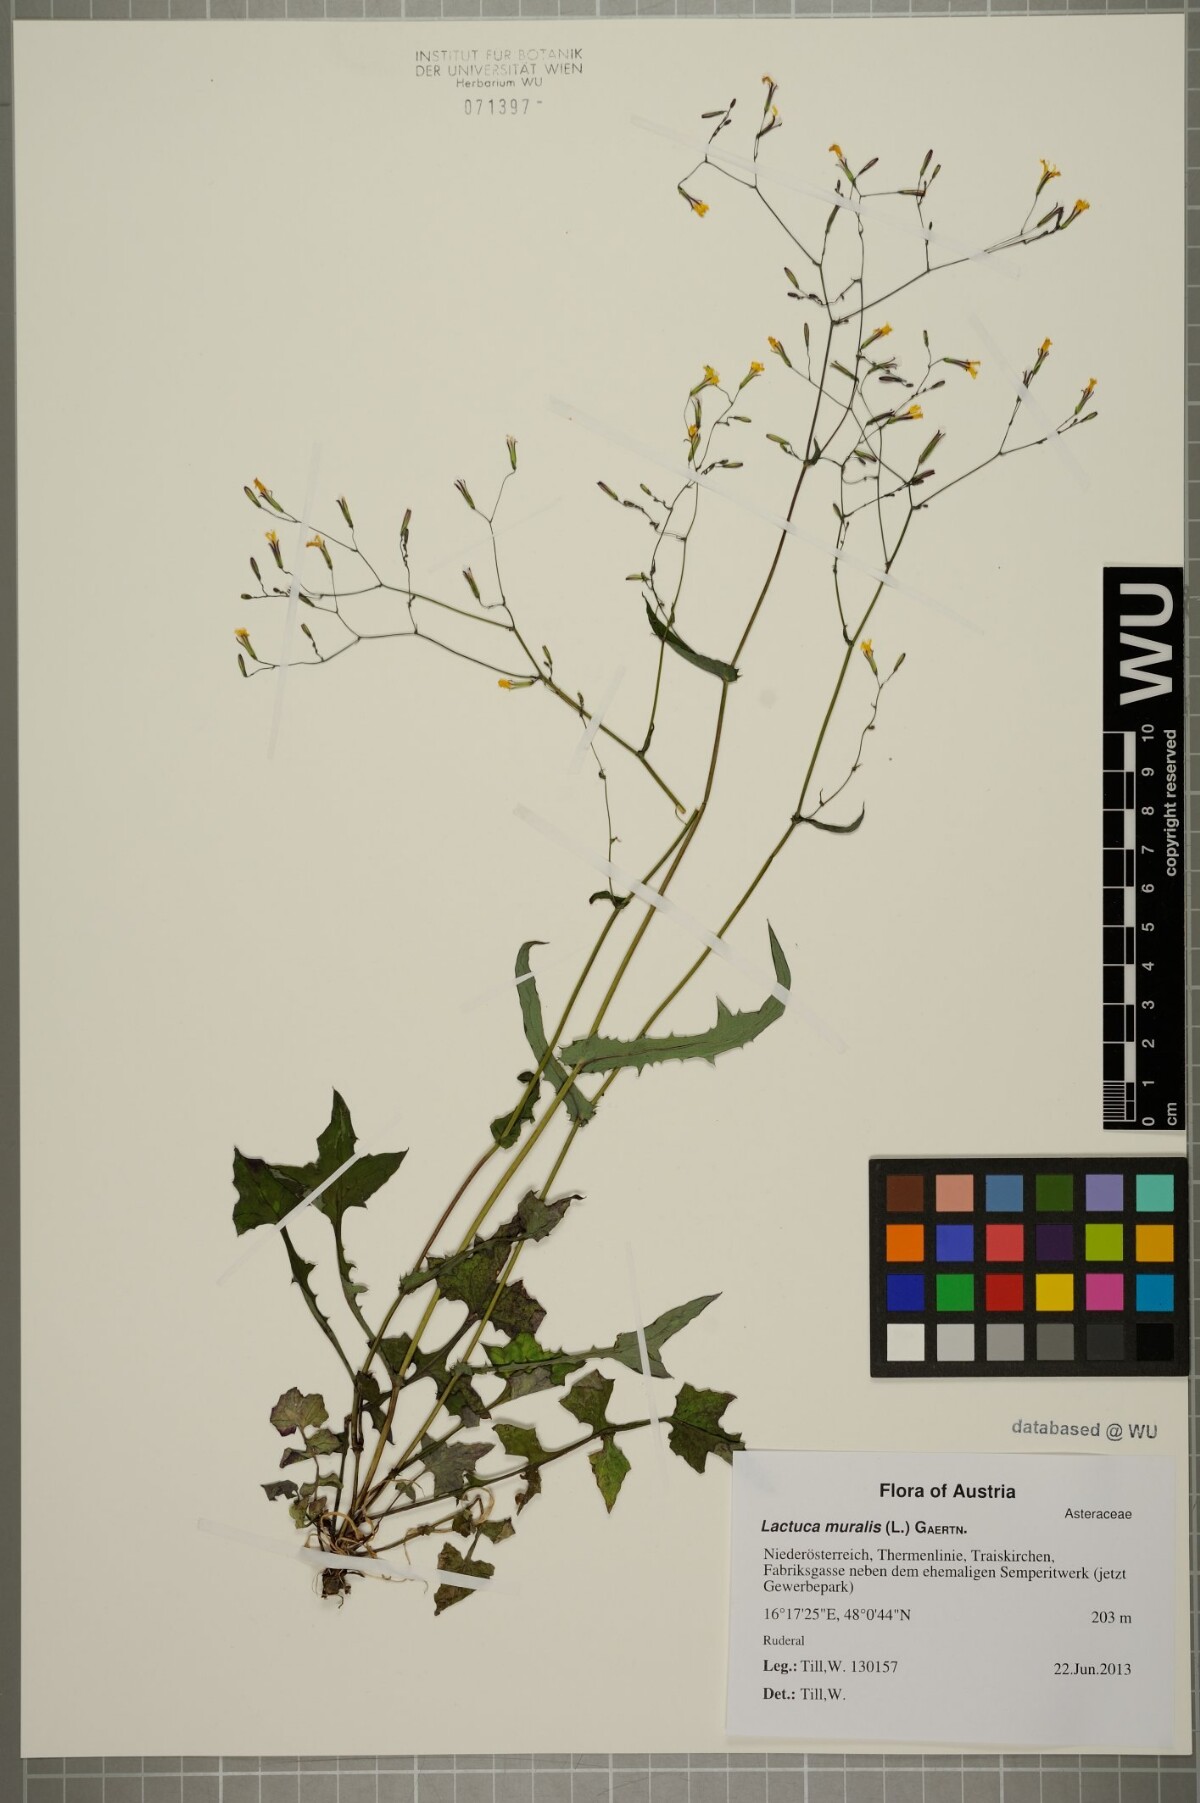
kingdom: Plantae
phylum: Tracheophyta
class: Magnoliopsida
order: Asterales
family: Asteraceae
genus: Mycelis
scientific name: Mycelis muralis
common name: Wall lettuce
